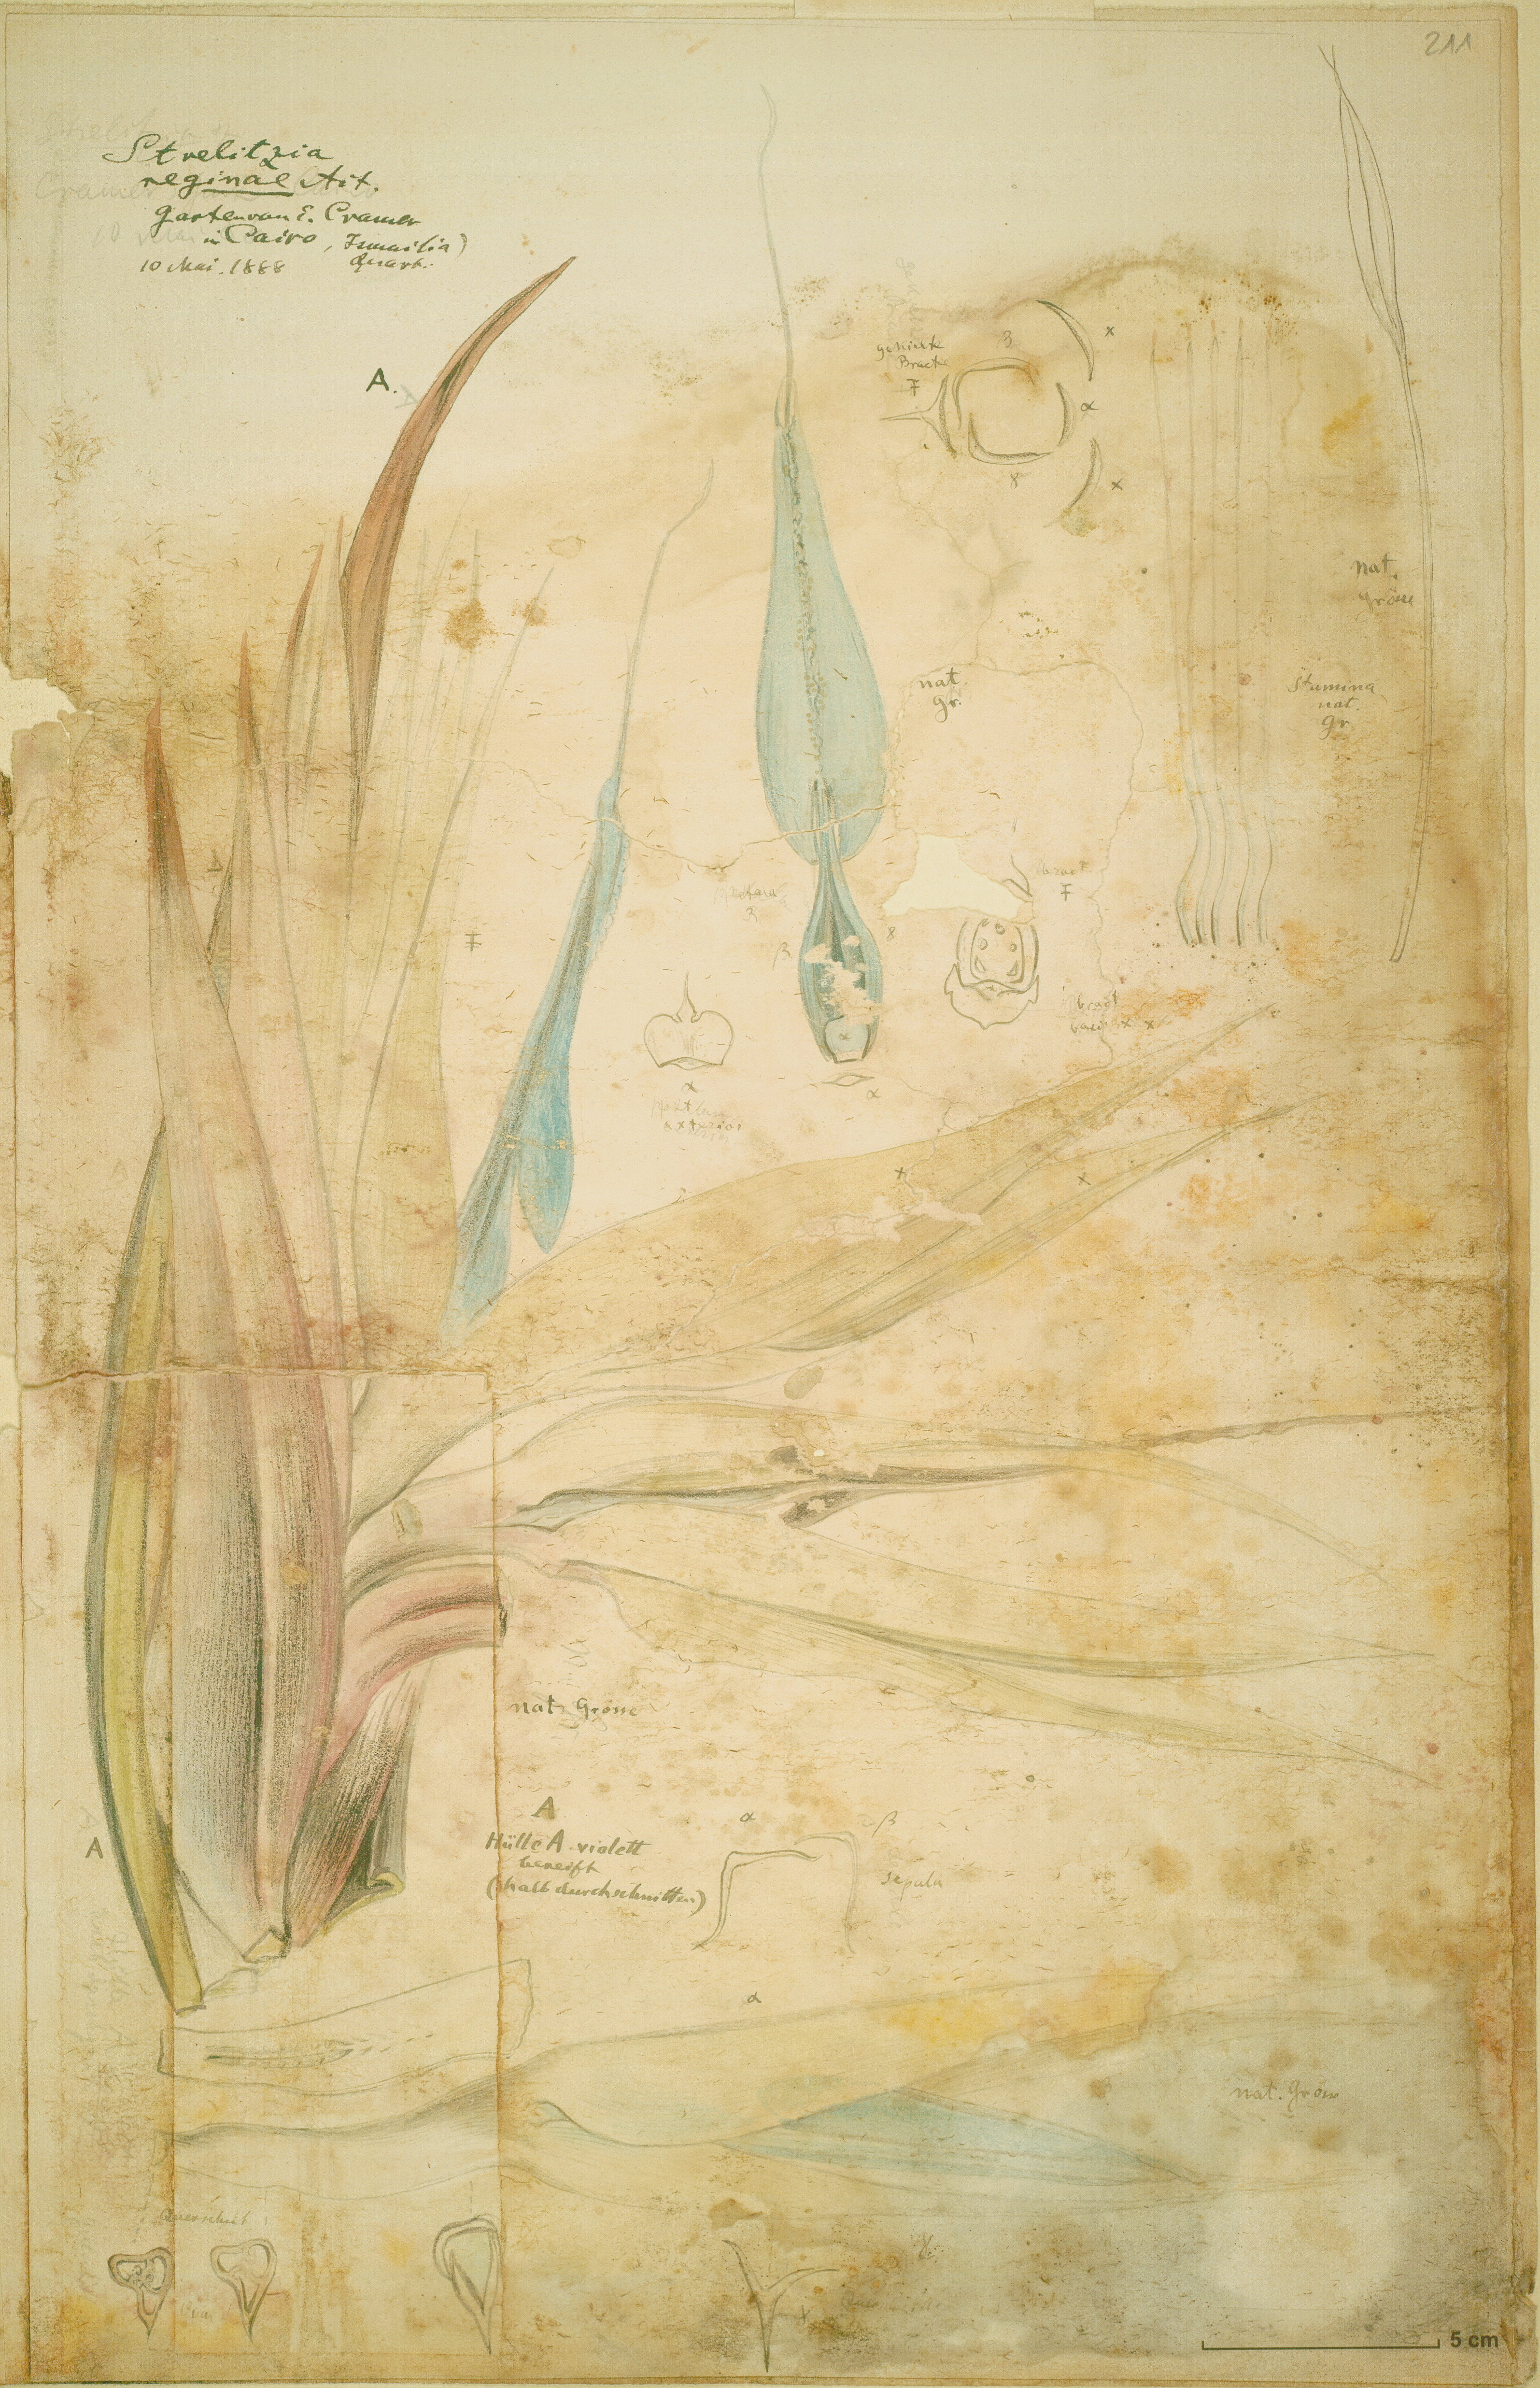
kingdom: Plantae
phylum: Tracheophyta
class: Liliopsida
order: Zingiberales
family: Strelitziaceae
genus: Strelitzia
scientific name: Strelitzia reginae
